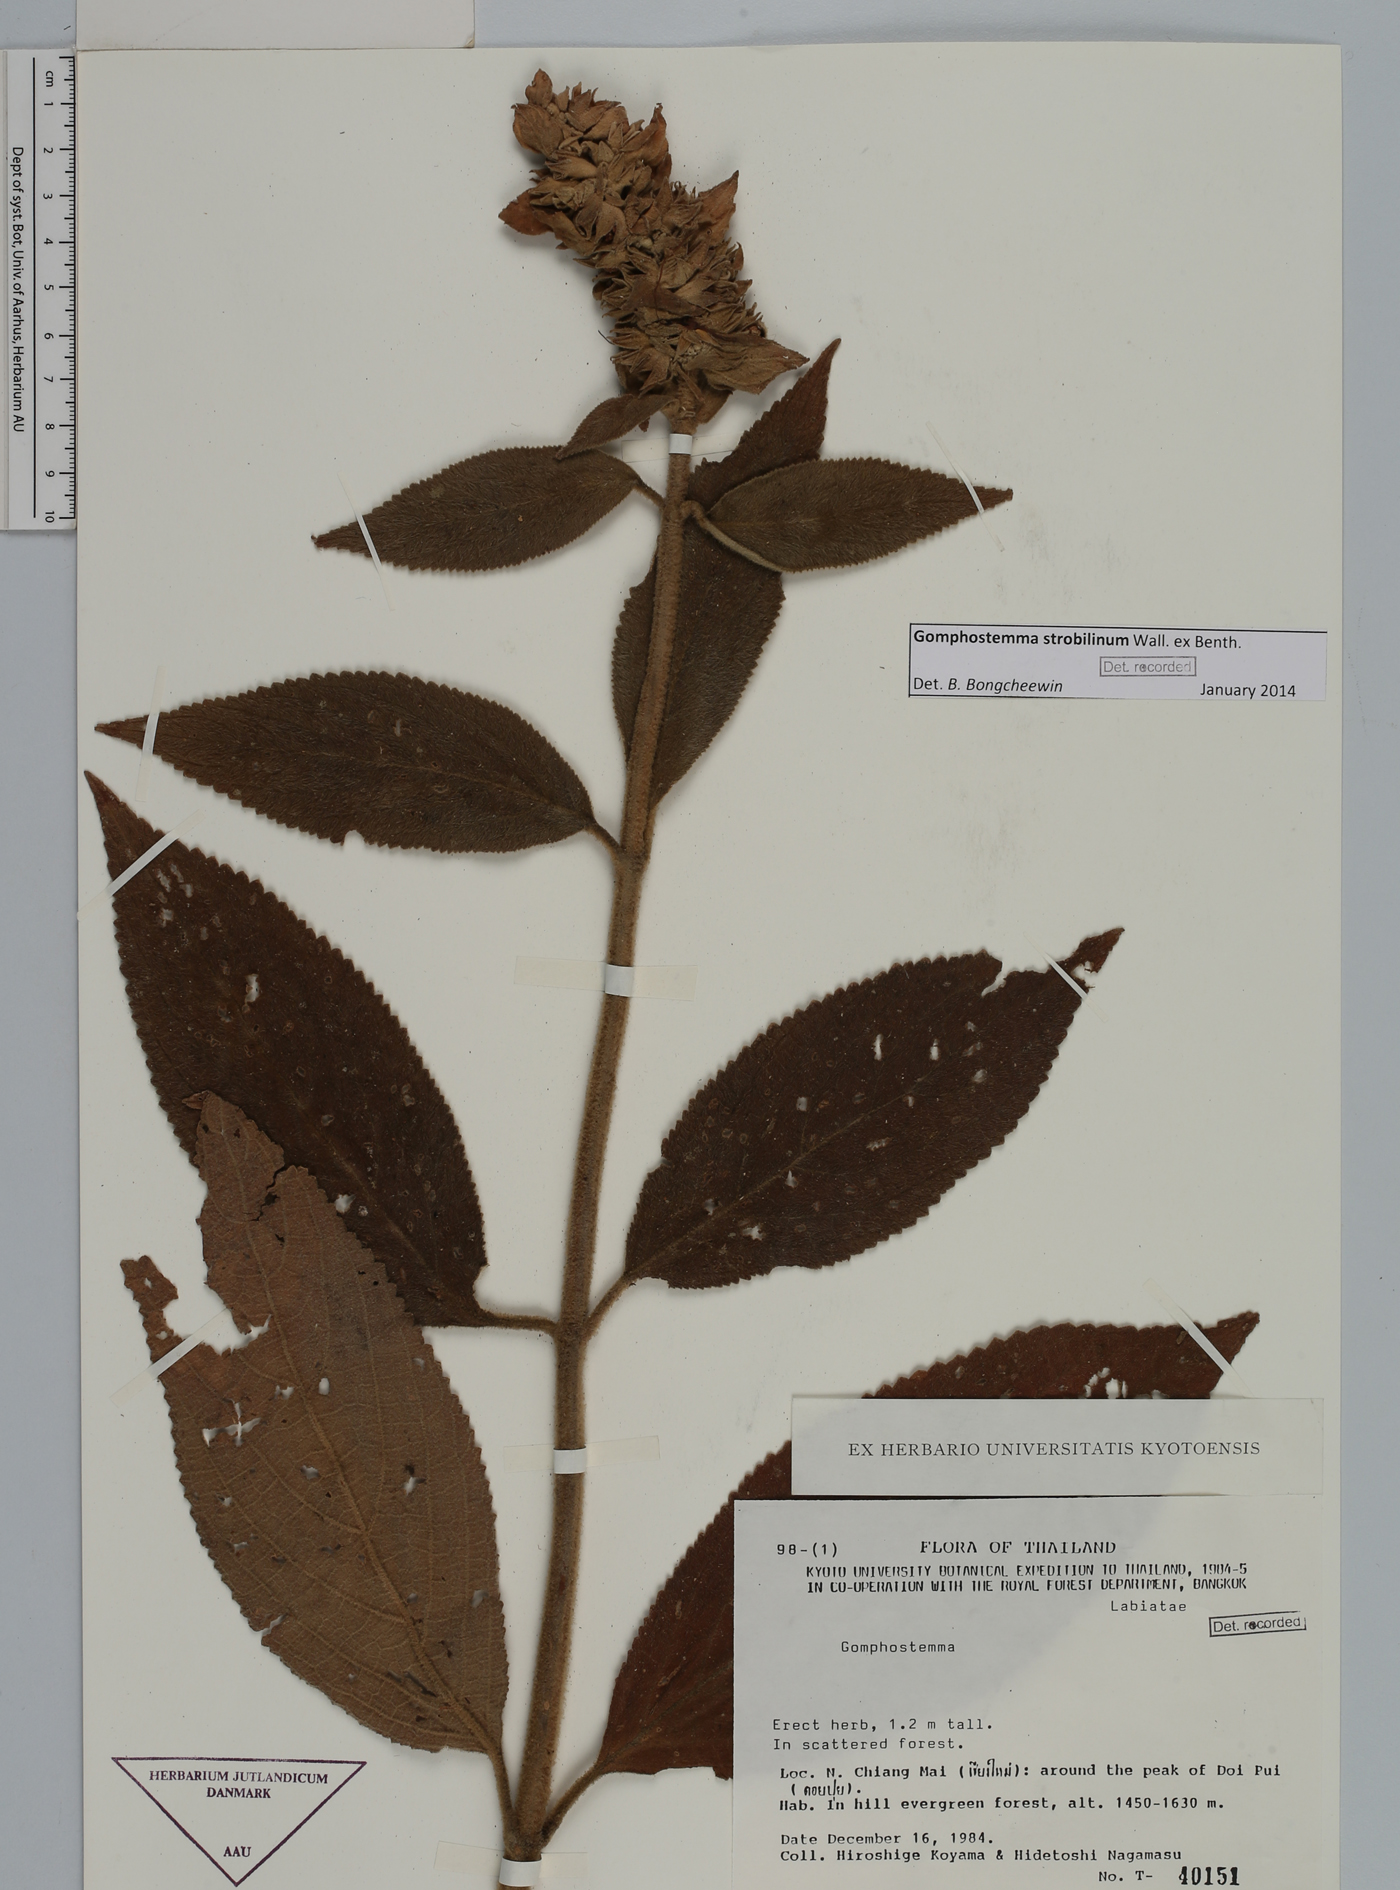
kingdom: Plantae
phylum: Tracheophyta
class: Magnoliopsida
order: Lamiales
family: Lamiaceae
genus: Gomphostemma
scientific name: Gomphostemma strobilinum
